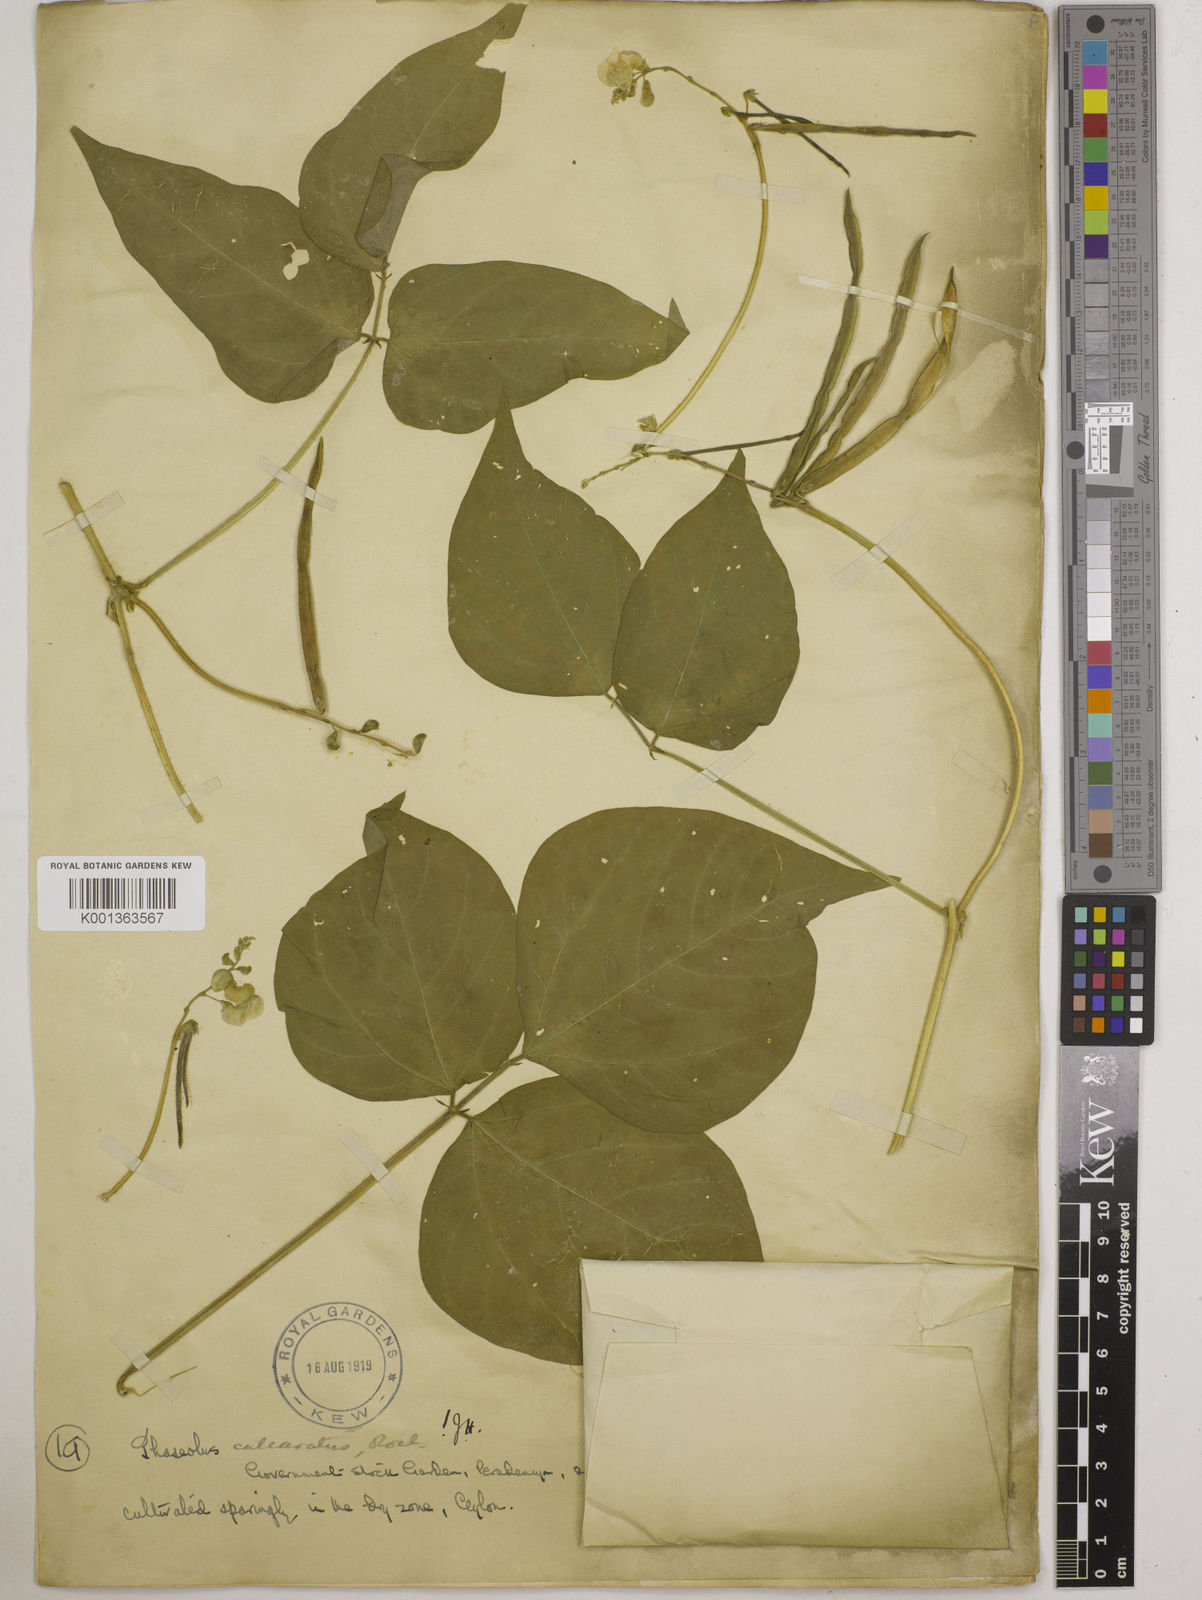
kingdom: Plantae
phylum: Tracheophyta
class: Magnoliopsida
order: Fabales
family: Fabaceae
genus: Vigna
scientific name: Vigna umbellata
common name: Oriental-bean
